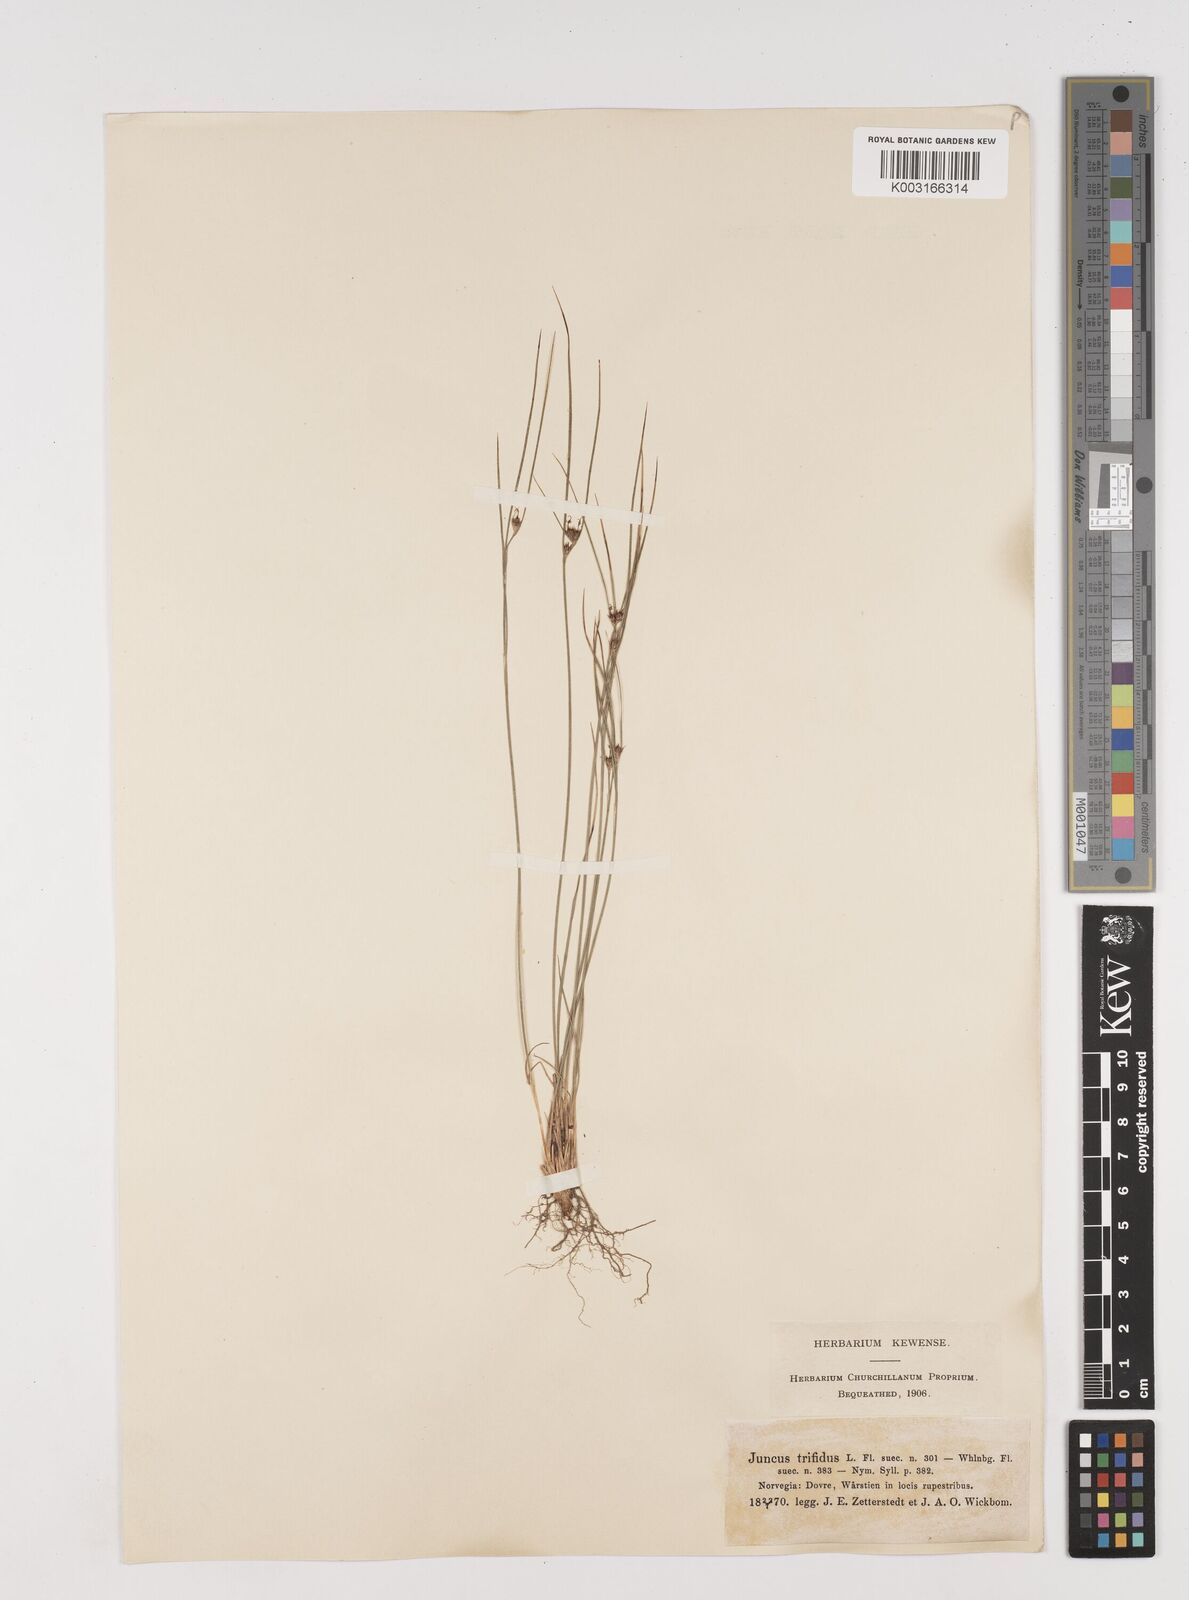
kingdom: Plantae
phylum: Tracheophyta
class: Liliopsida
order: Poales
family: Juncaceae
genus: Oreojuncus
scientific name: Oreojuncus trifidus
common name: Highland rush
